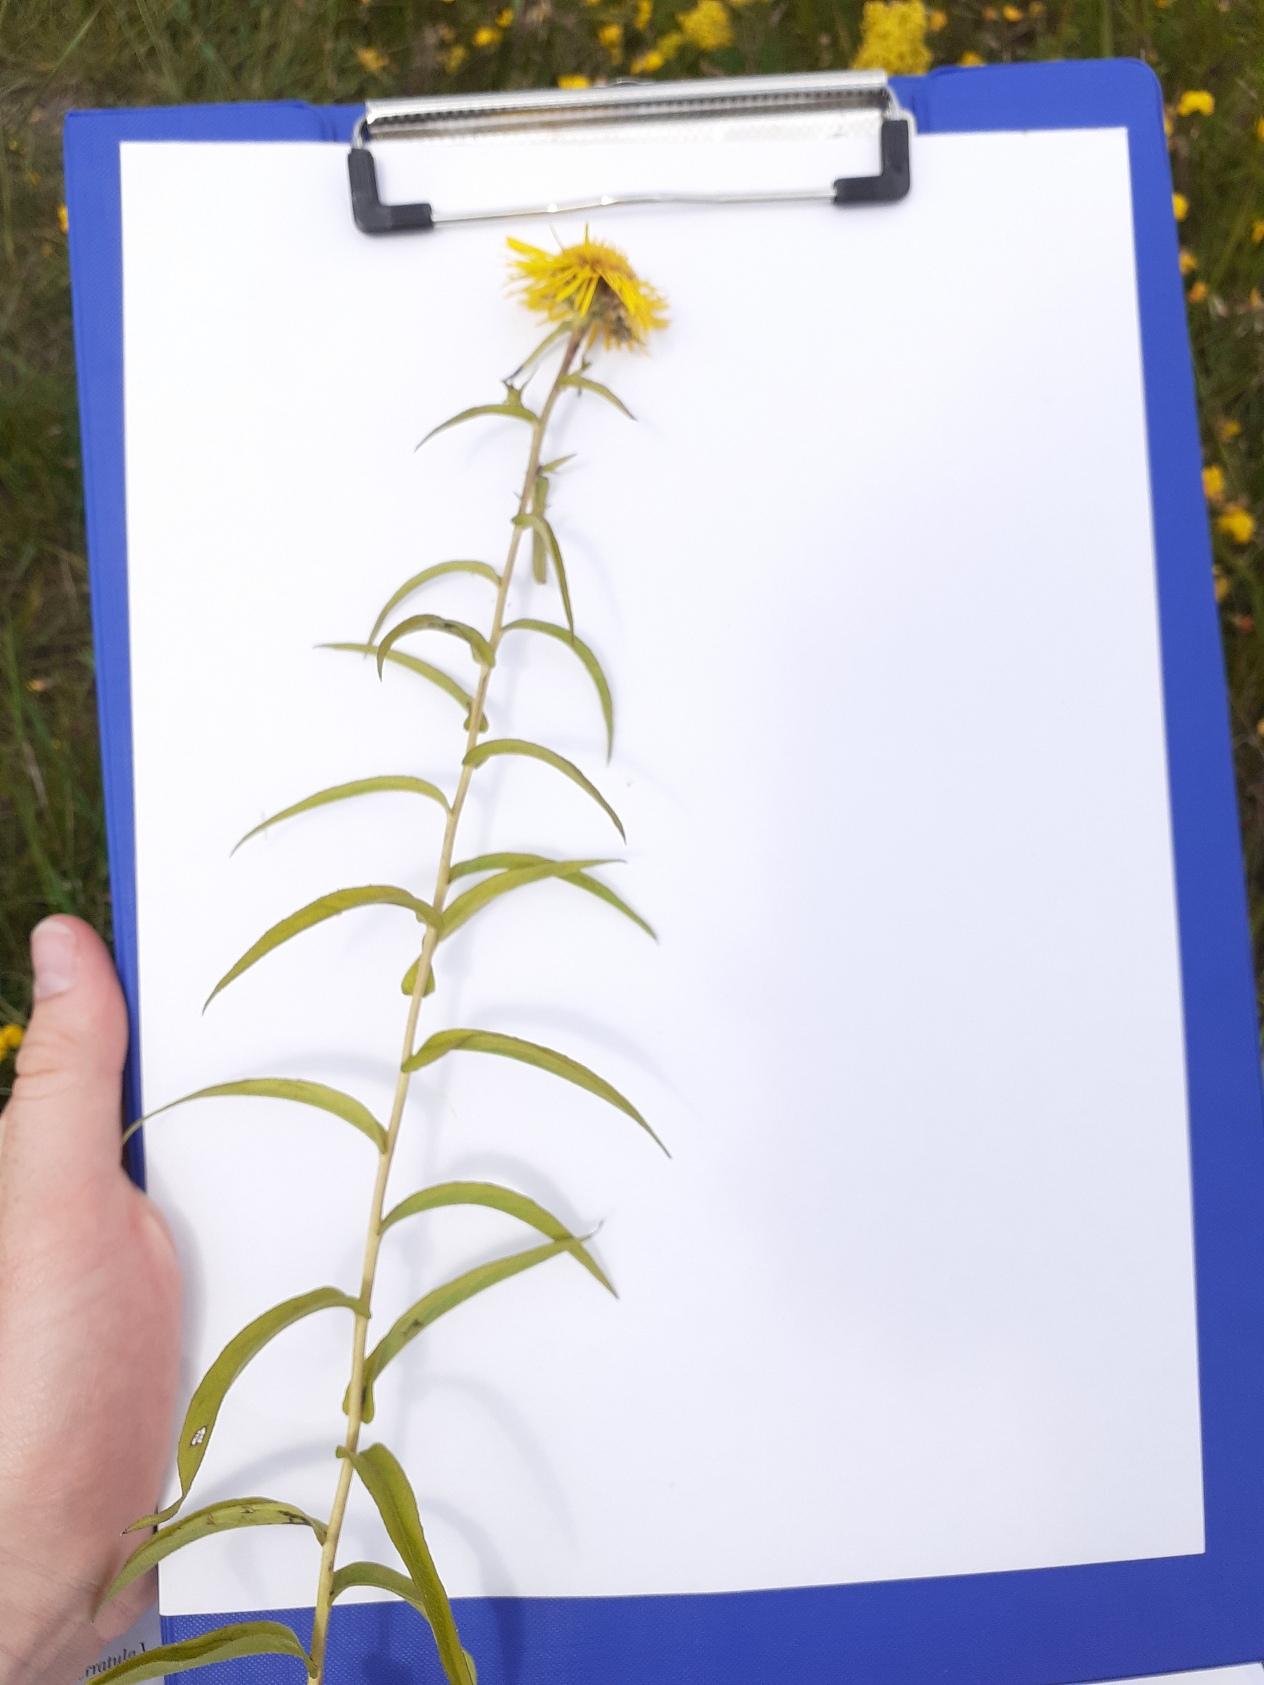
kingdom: Plantae
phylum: Tracheophyta
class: Magnoliopsida
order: Asterales
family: Asteraceae
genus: Pentanema
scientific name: Pentanema salicinum
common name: Pile-alant
